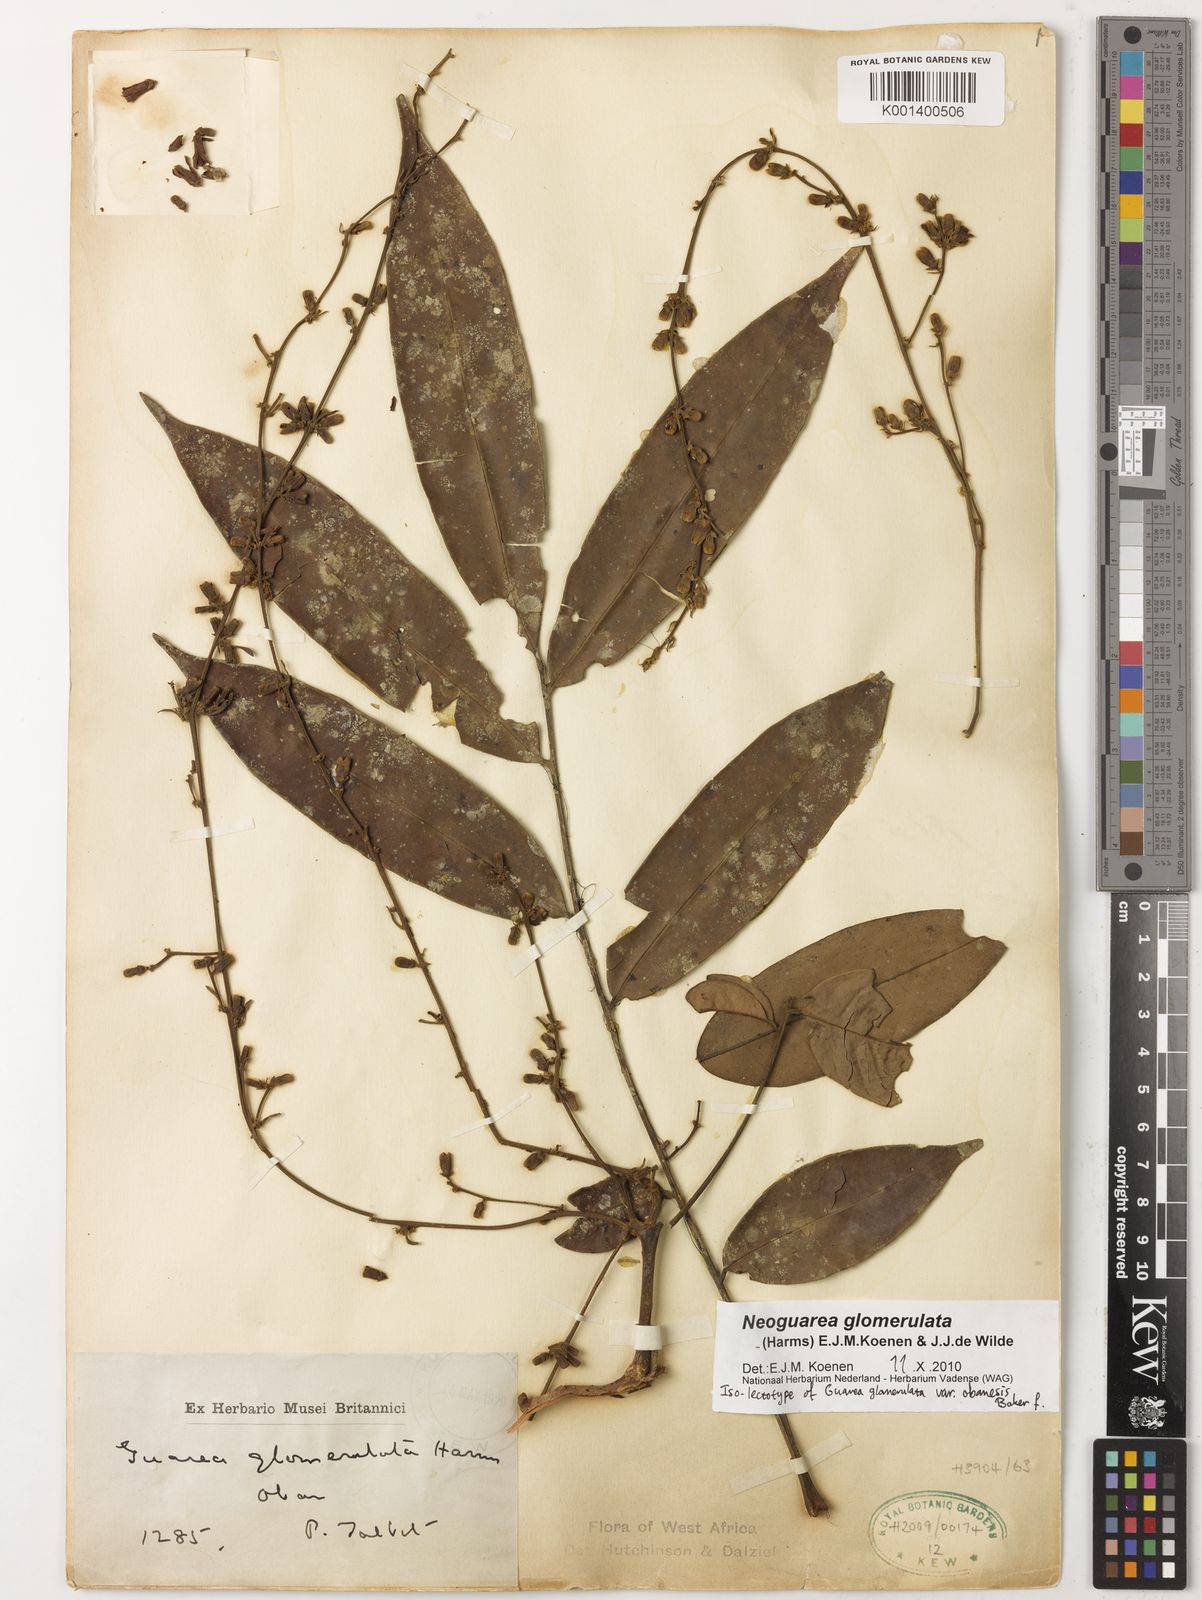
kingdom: Plantae
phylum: Tracheophyta
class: Magnoliopsida
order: Sapindales
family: Meliaceae
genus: Neoguarea
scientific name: Neoguarea glomerulata
